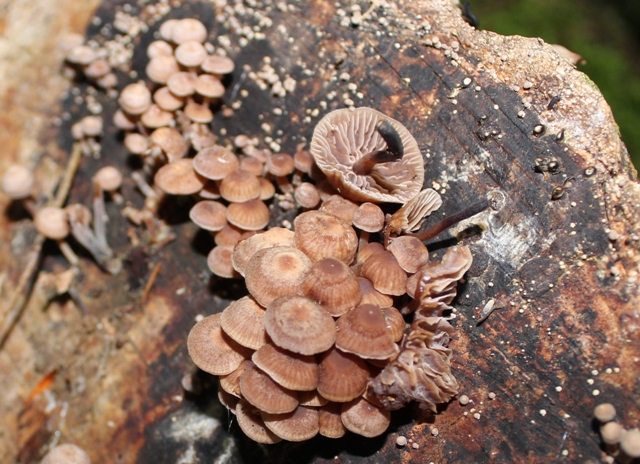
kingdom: Fungi
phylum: Basidiomycota
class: Agaricomycetes
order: Agaricales
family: Omphalotaceae
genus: Gymnopus
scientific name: Gymnopus foetidus
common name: stinkende fladhat
